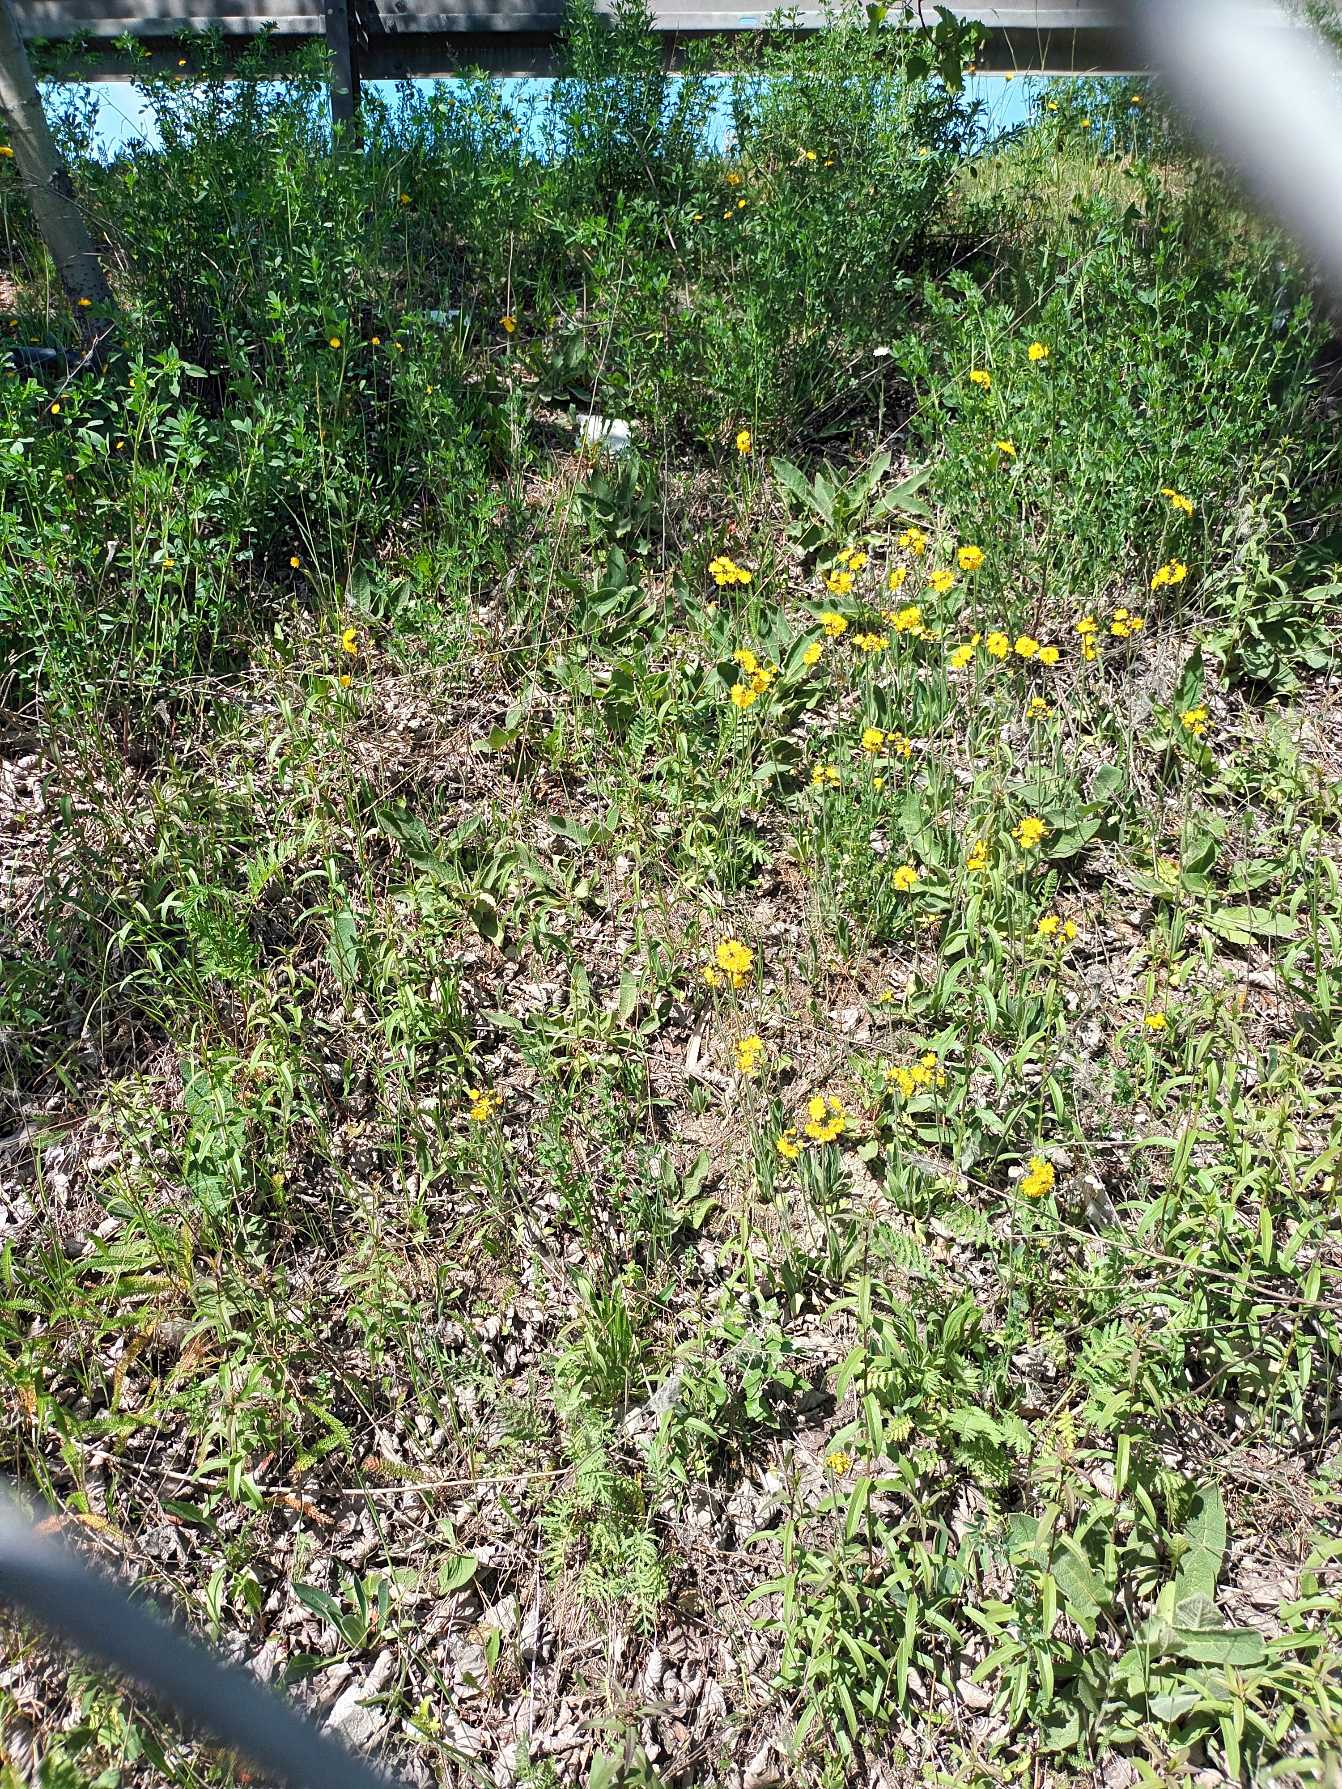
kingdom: Plantae
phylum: Tracheophyta
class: Magnoliopsida
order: Asterales
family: Asteraceae
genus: Pilosella
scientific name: Pilosella cymosa
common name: Blød kvast-høgeurt
